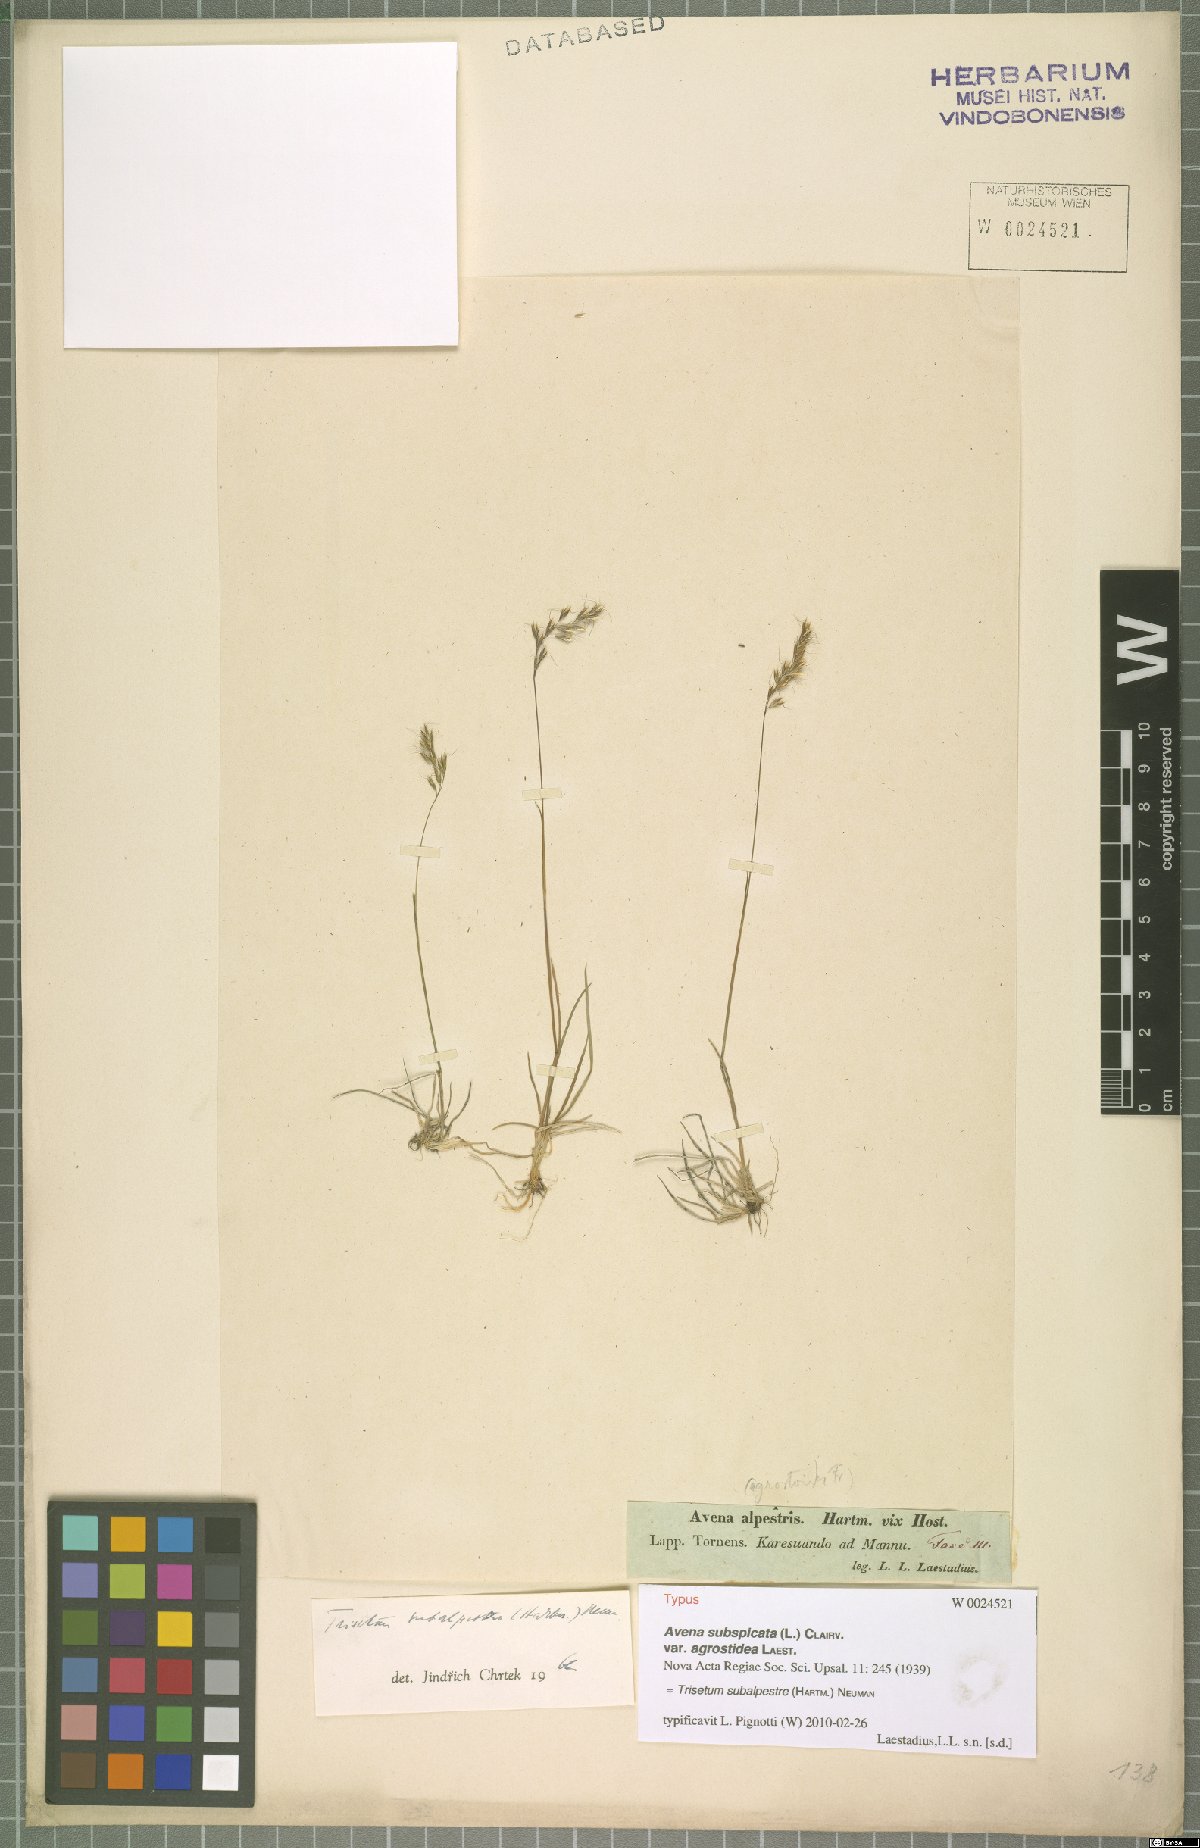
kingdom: Plantae
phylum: Tracheophyta
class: Liliopsida
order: Poales
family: Poaceae
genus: Koeleria
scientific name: Koeleria subalpestris
